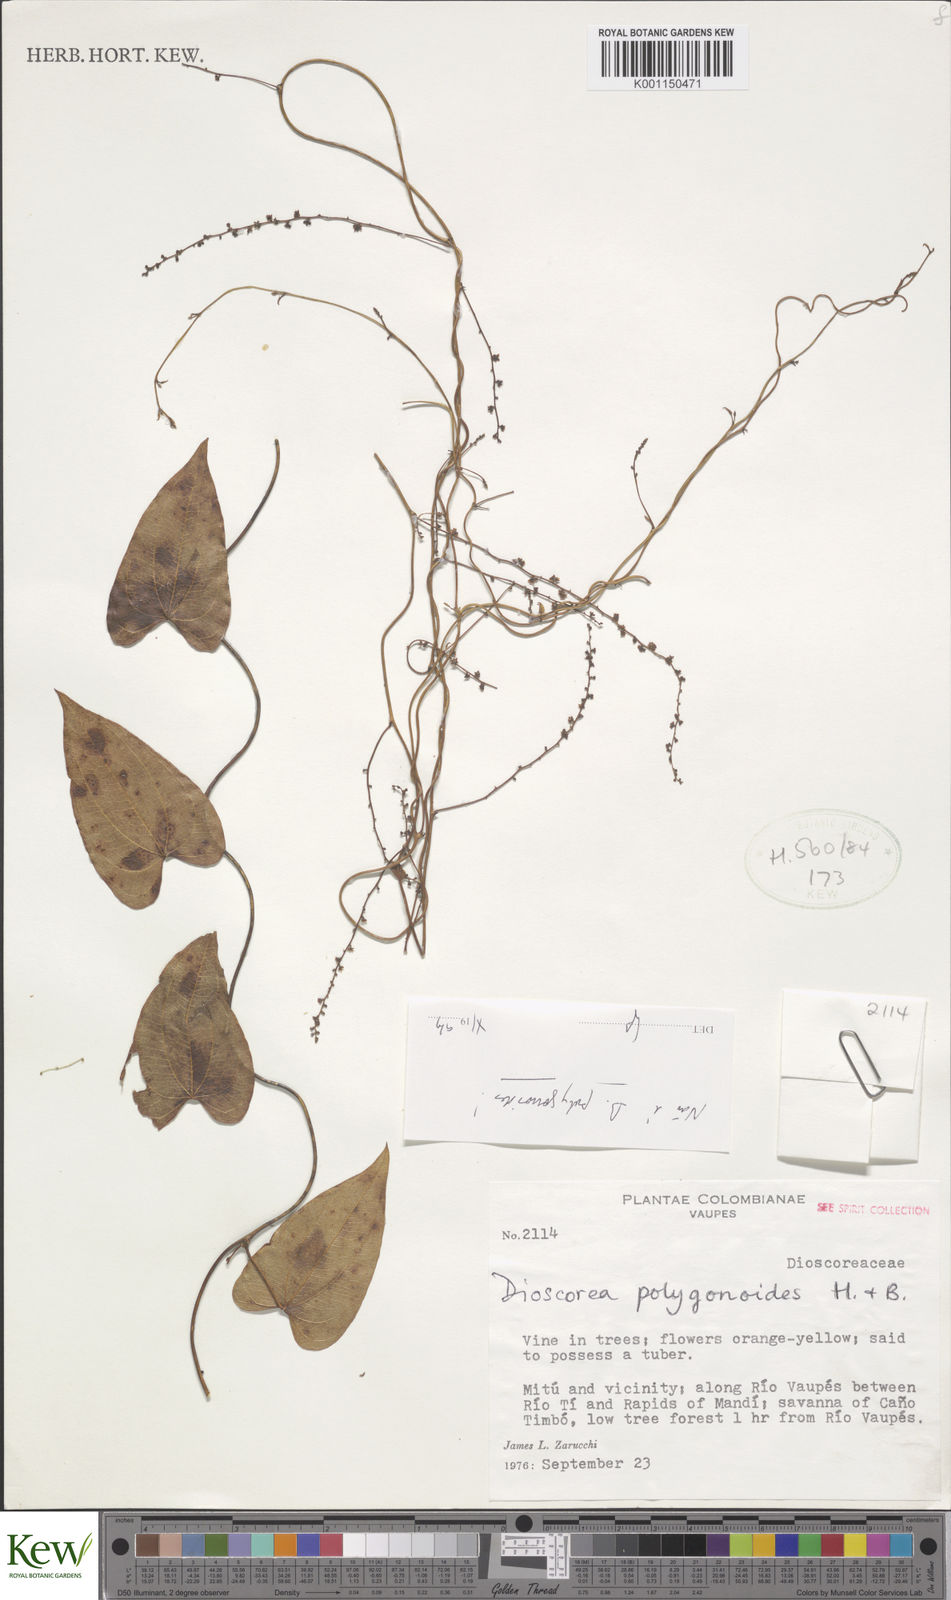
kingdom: Plantae
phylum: Tracheophyta
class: Liliopsida
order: Dioscoreales
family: Dioscoreaceae
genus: Dioscorea
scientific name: Dioscorea cuspidata
